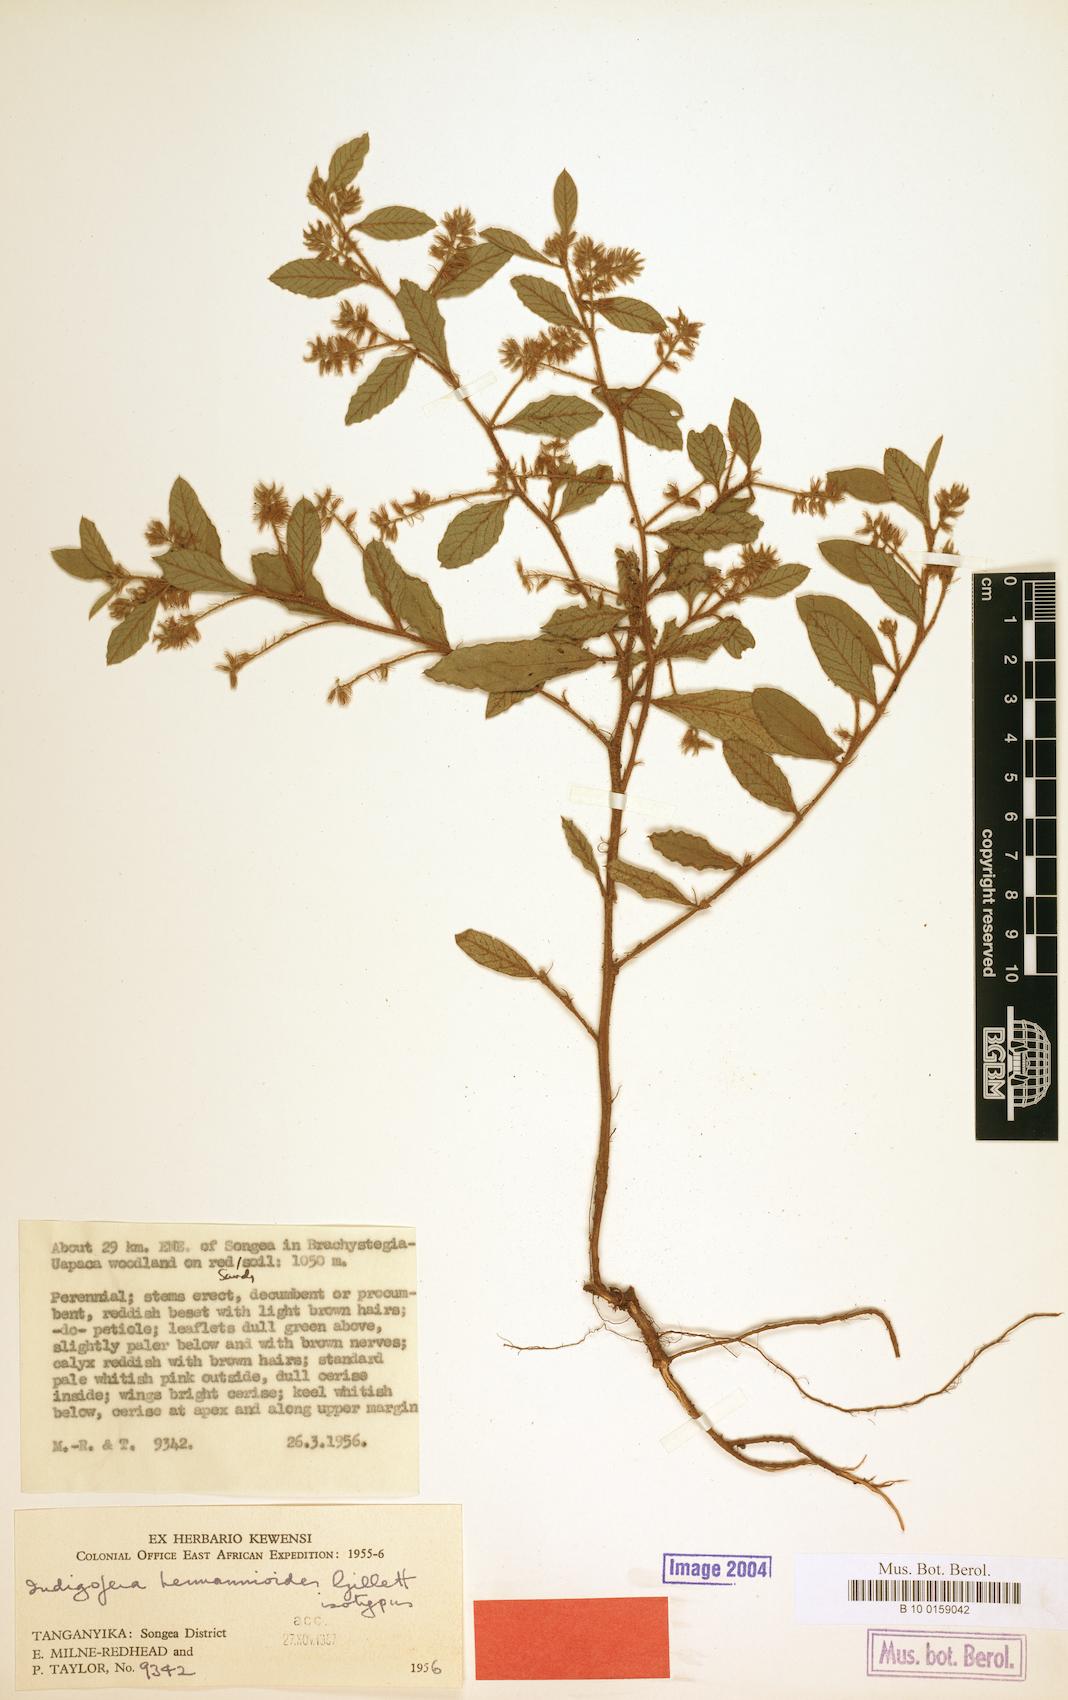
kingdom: Plantae
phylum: Tracheophyta
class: Magnoliopsida
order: Fabales
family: Fabaceae
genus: Indigofera
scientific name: Indigofera
